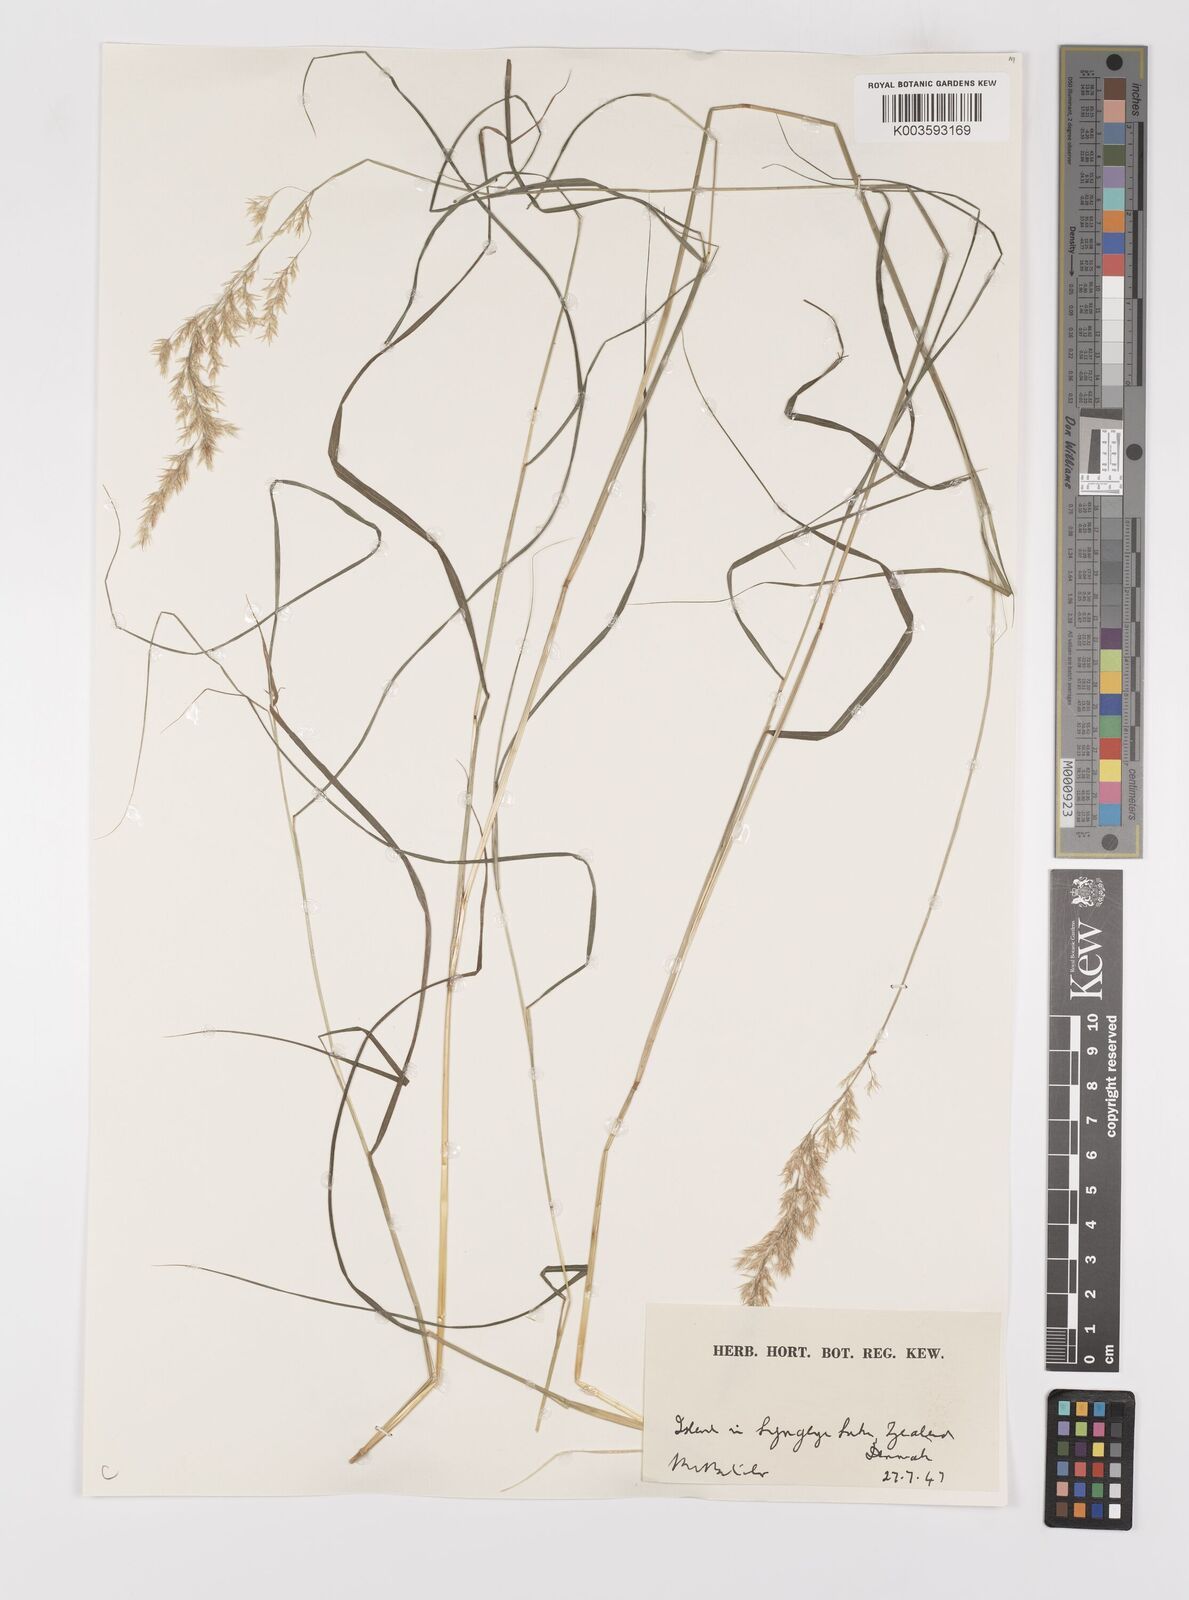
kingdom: Plantae
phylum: Tracheophyta
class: Liliopsida
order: Poales
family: Poaceae
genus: Calamagrostis
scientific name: Calamagrostis
